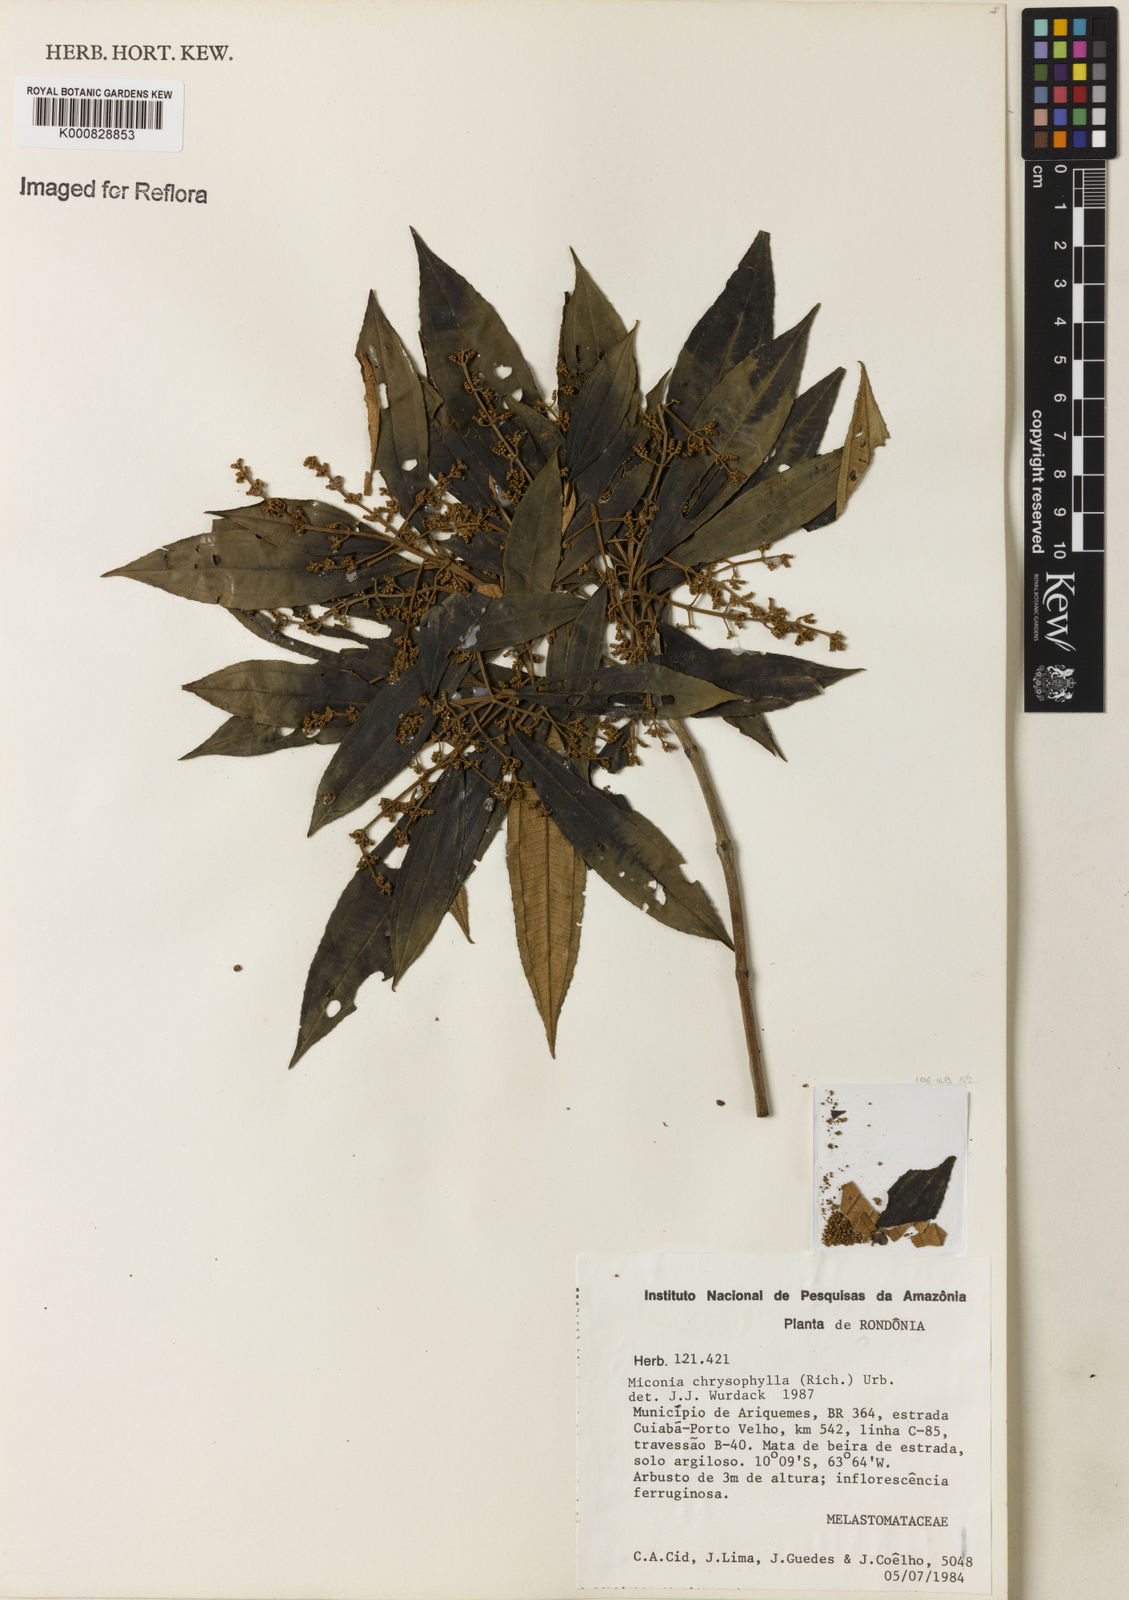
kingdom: Plantae
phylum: Tracheophyta
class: Magnoliopsida
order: Myrtales
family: Melastomataceae
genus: Miconia
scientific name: Miconia chrysophylla
